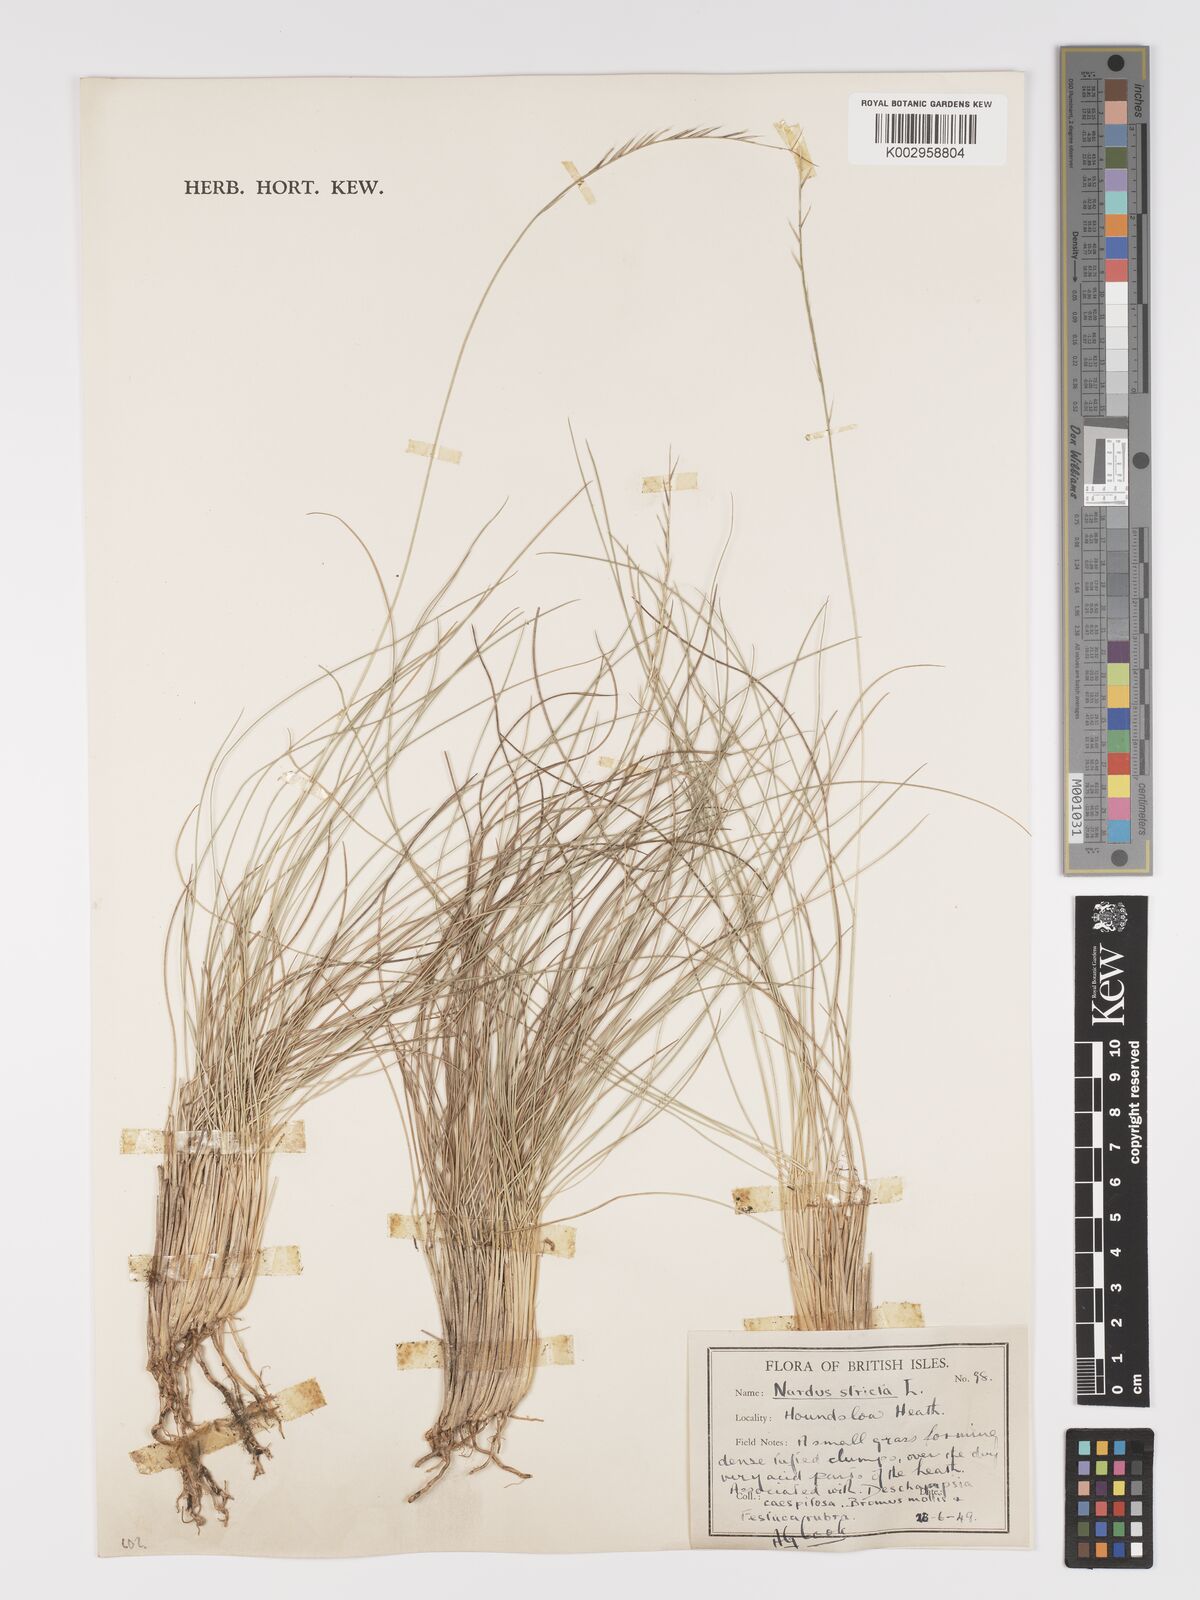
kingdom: Plantae
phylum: Tracheophyta
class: Liliopsida
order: Poales
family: Poaceae
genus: Nardus
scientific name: Nardus stricta
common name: Mat-grass
